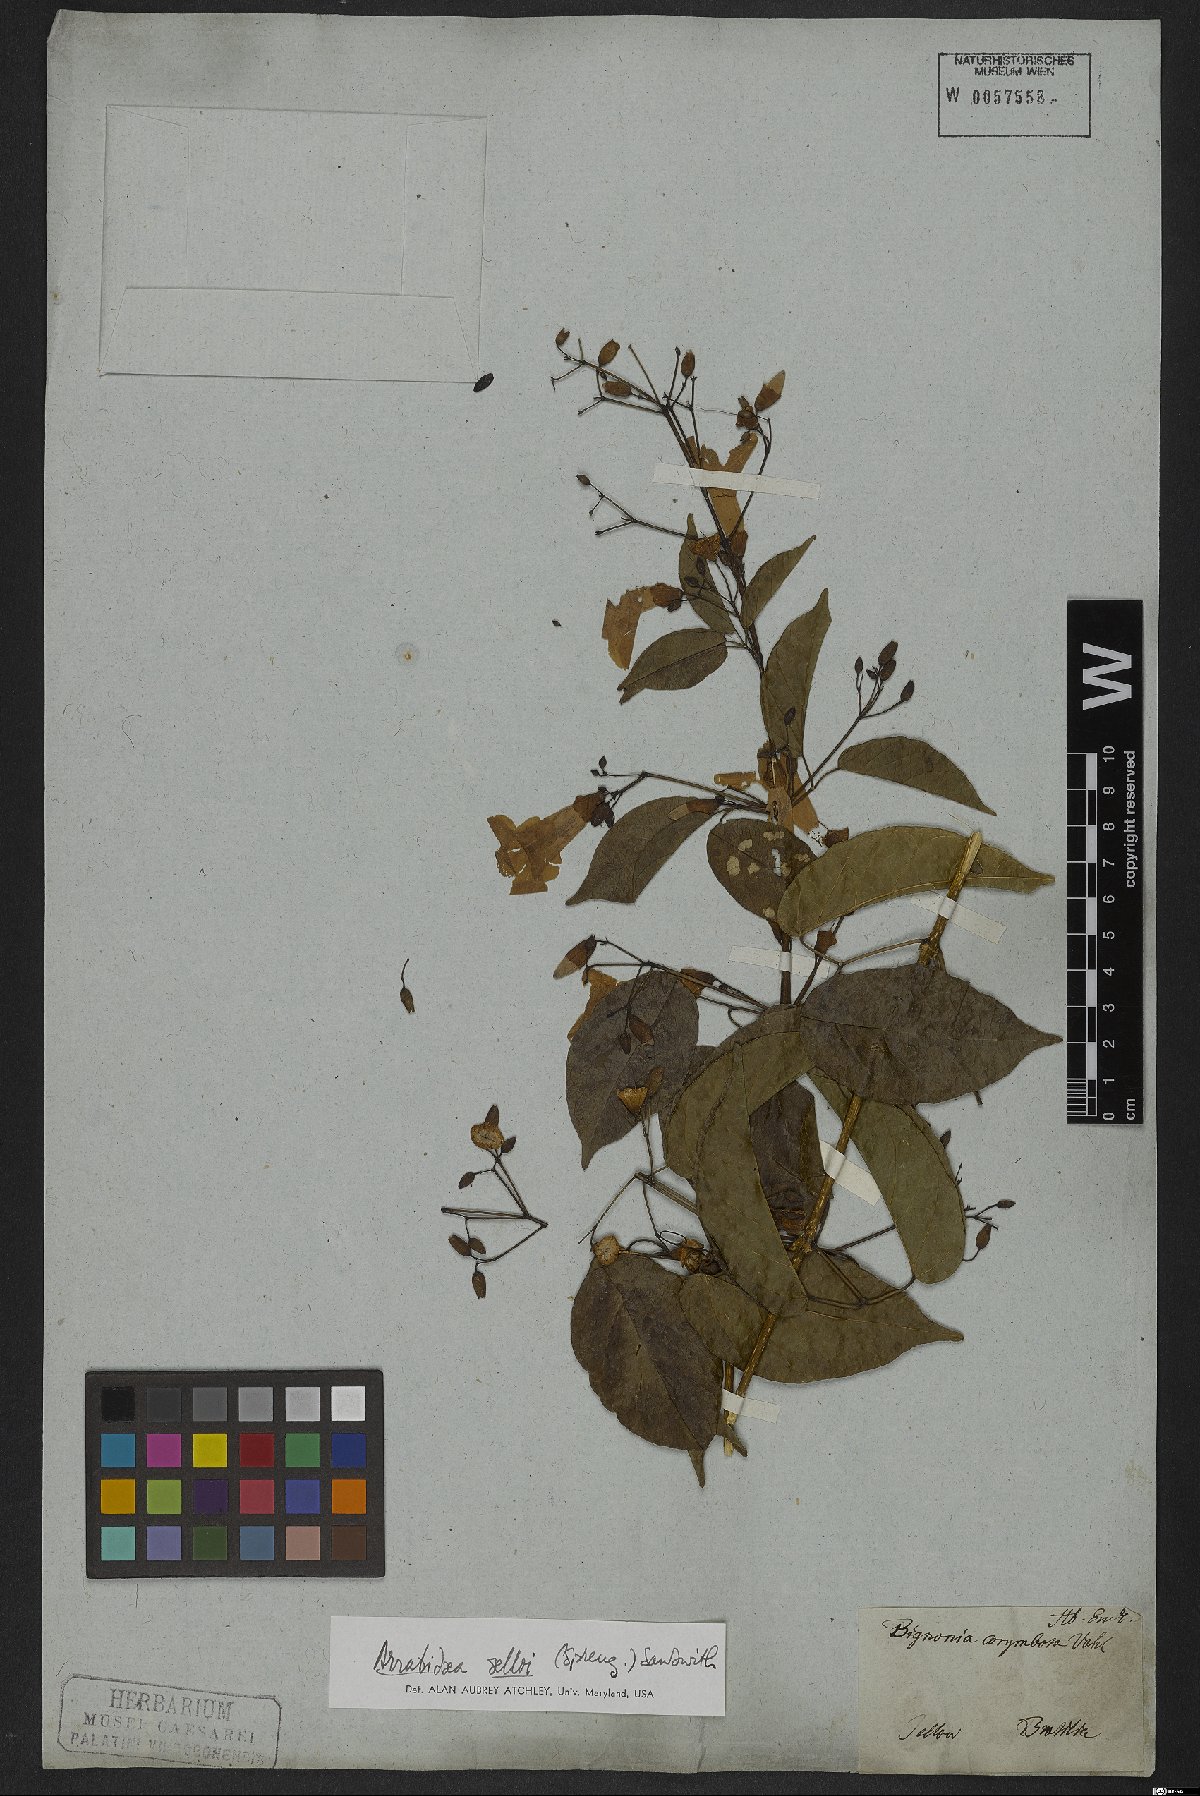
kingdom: Plantae
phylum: Tracheophyta
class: Magnoliopsida
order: Lamiales
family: Bignoniaceae
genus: Tanaecium
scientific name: Tanaecium selloi
